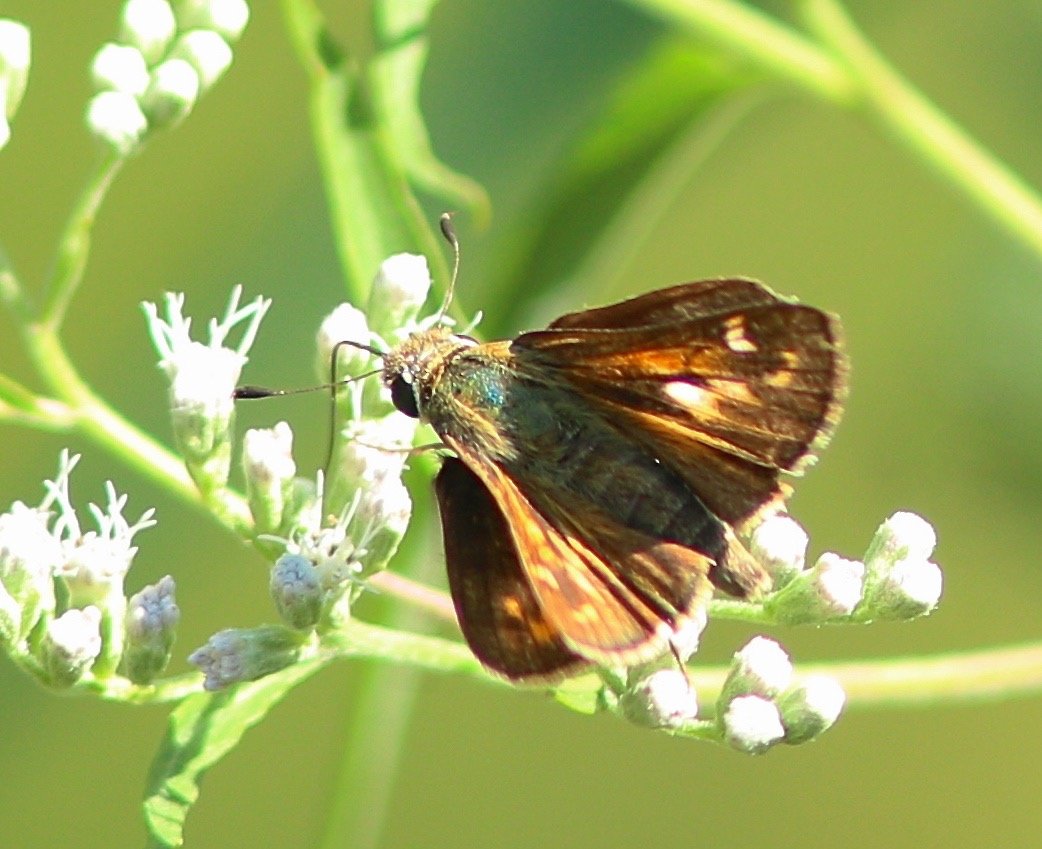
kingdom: Animalia
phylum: Arthropoda
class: Insecta
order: Lepidoptera
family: Hesperiidae
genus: Atalopedes
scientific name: Atalopedes campestris
